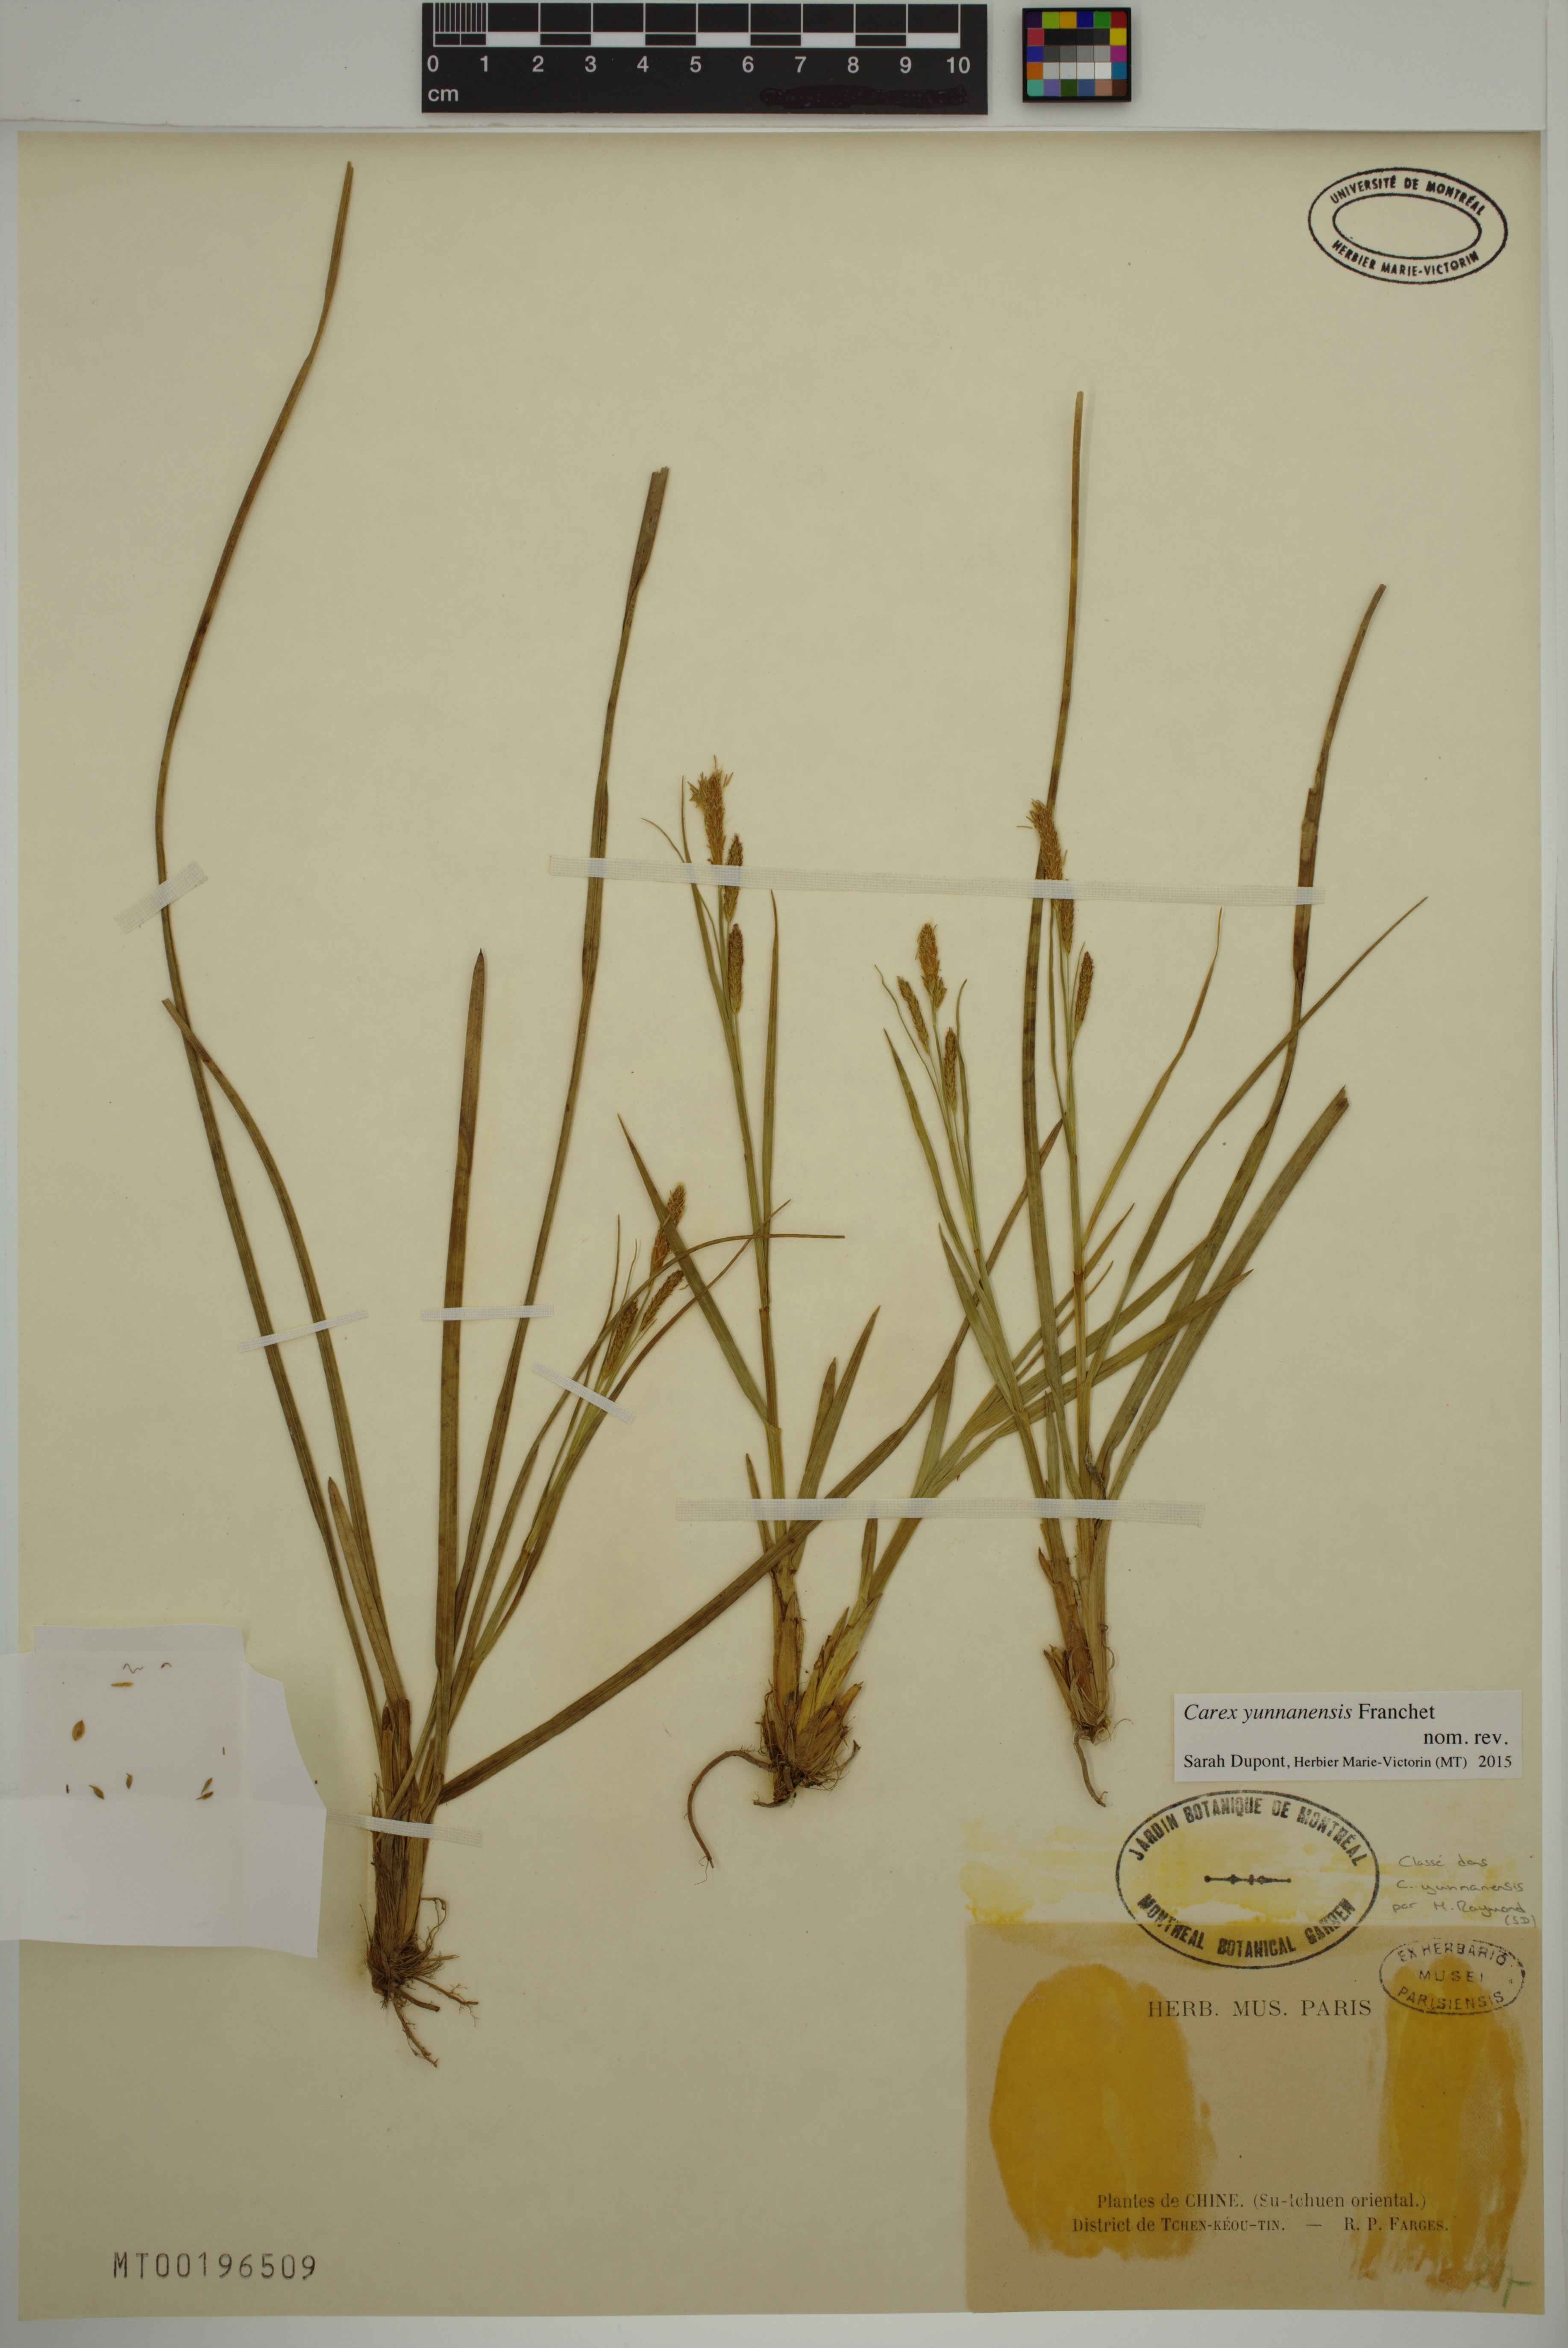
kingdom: Plantae
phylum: Tracheophyta
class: Liliopsida
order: Poales
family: Cyperaceae
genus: Carex
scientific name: Carex yunnanensis
